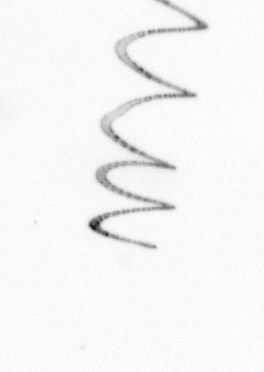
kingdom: Chromista
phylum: Ochrophyta
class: Bacillariophyceae
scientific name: Bacillariophyceae
